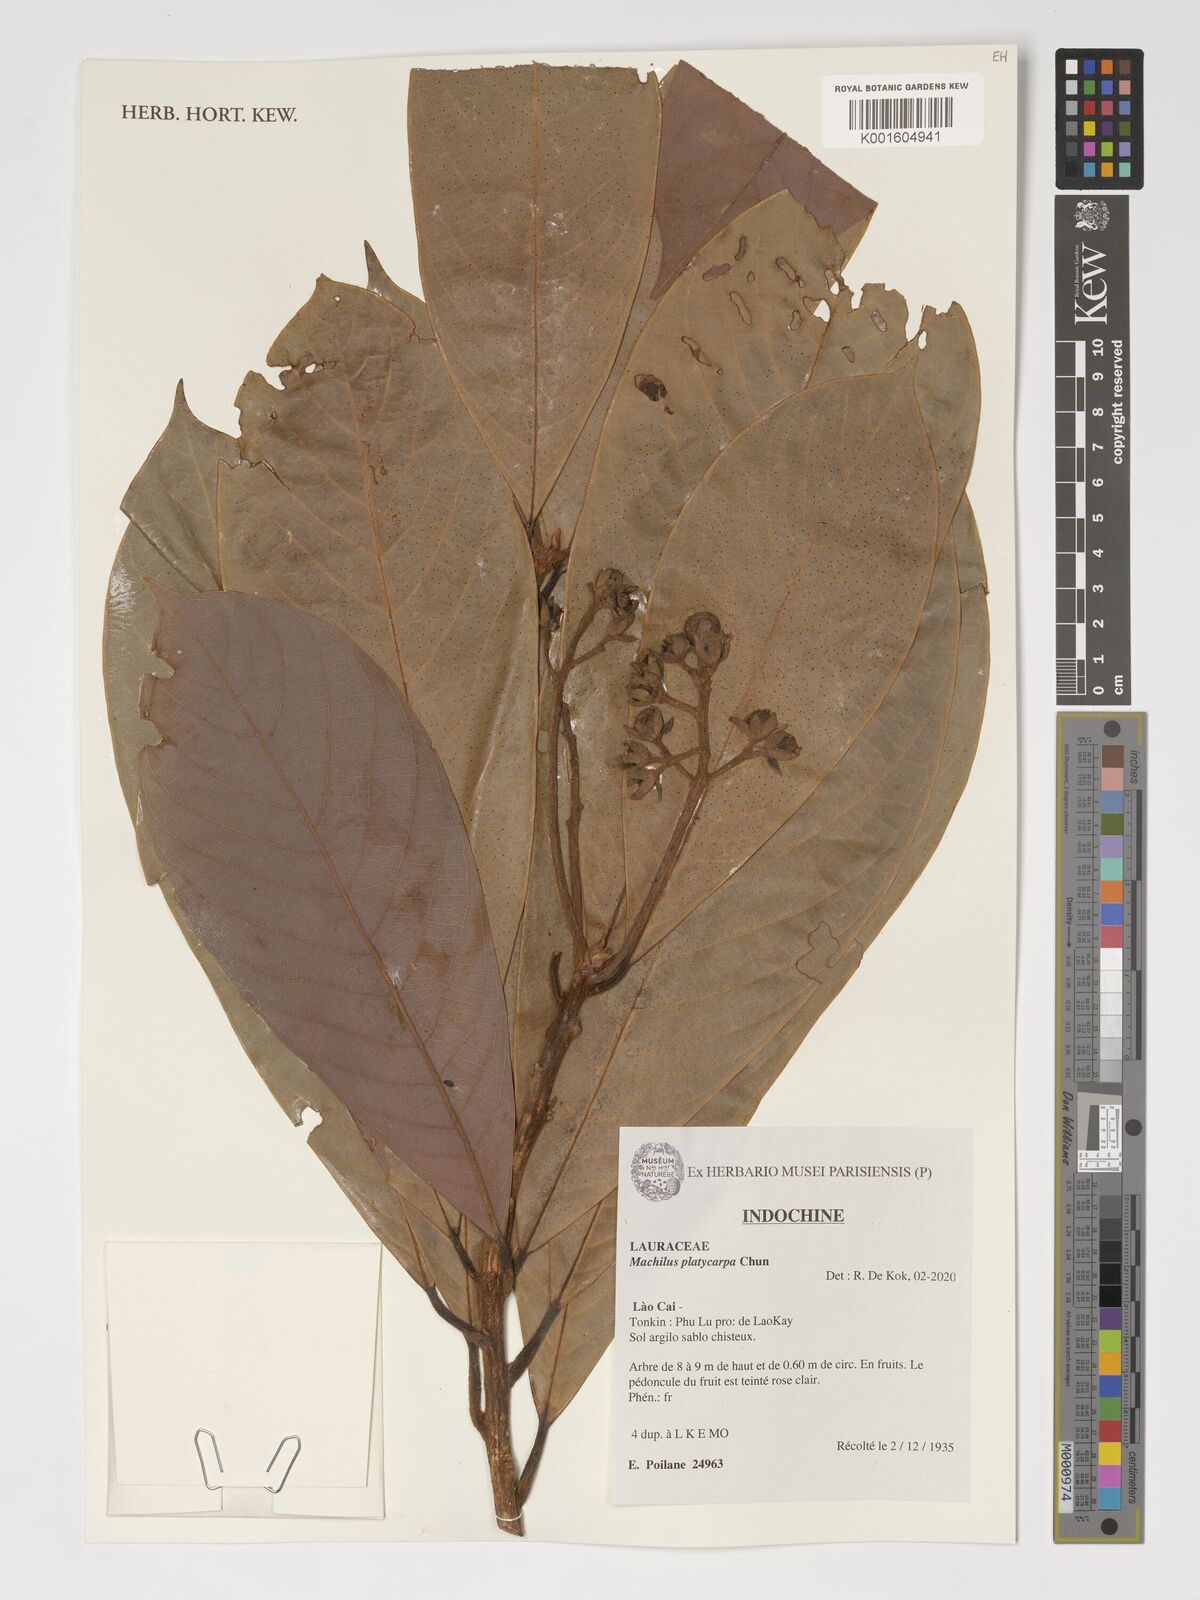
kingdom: Plantae
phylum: Tracheophyta
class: Magnoliopsida
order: Laurales
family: Lauraceae
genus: Machilus
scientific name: Machilus platycarpa
